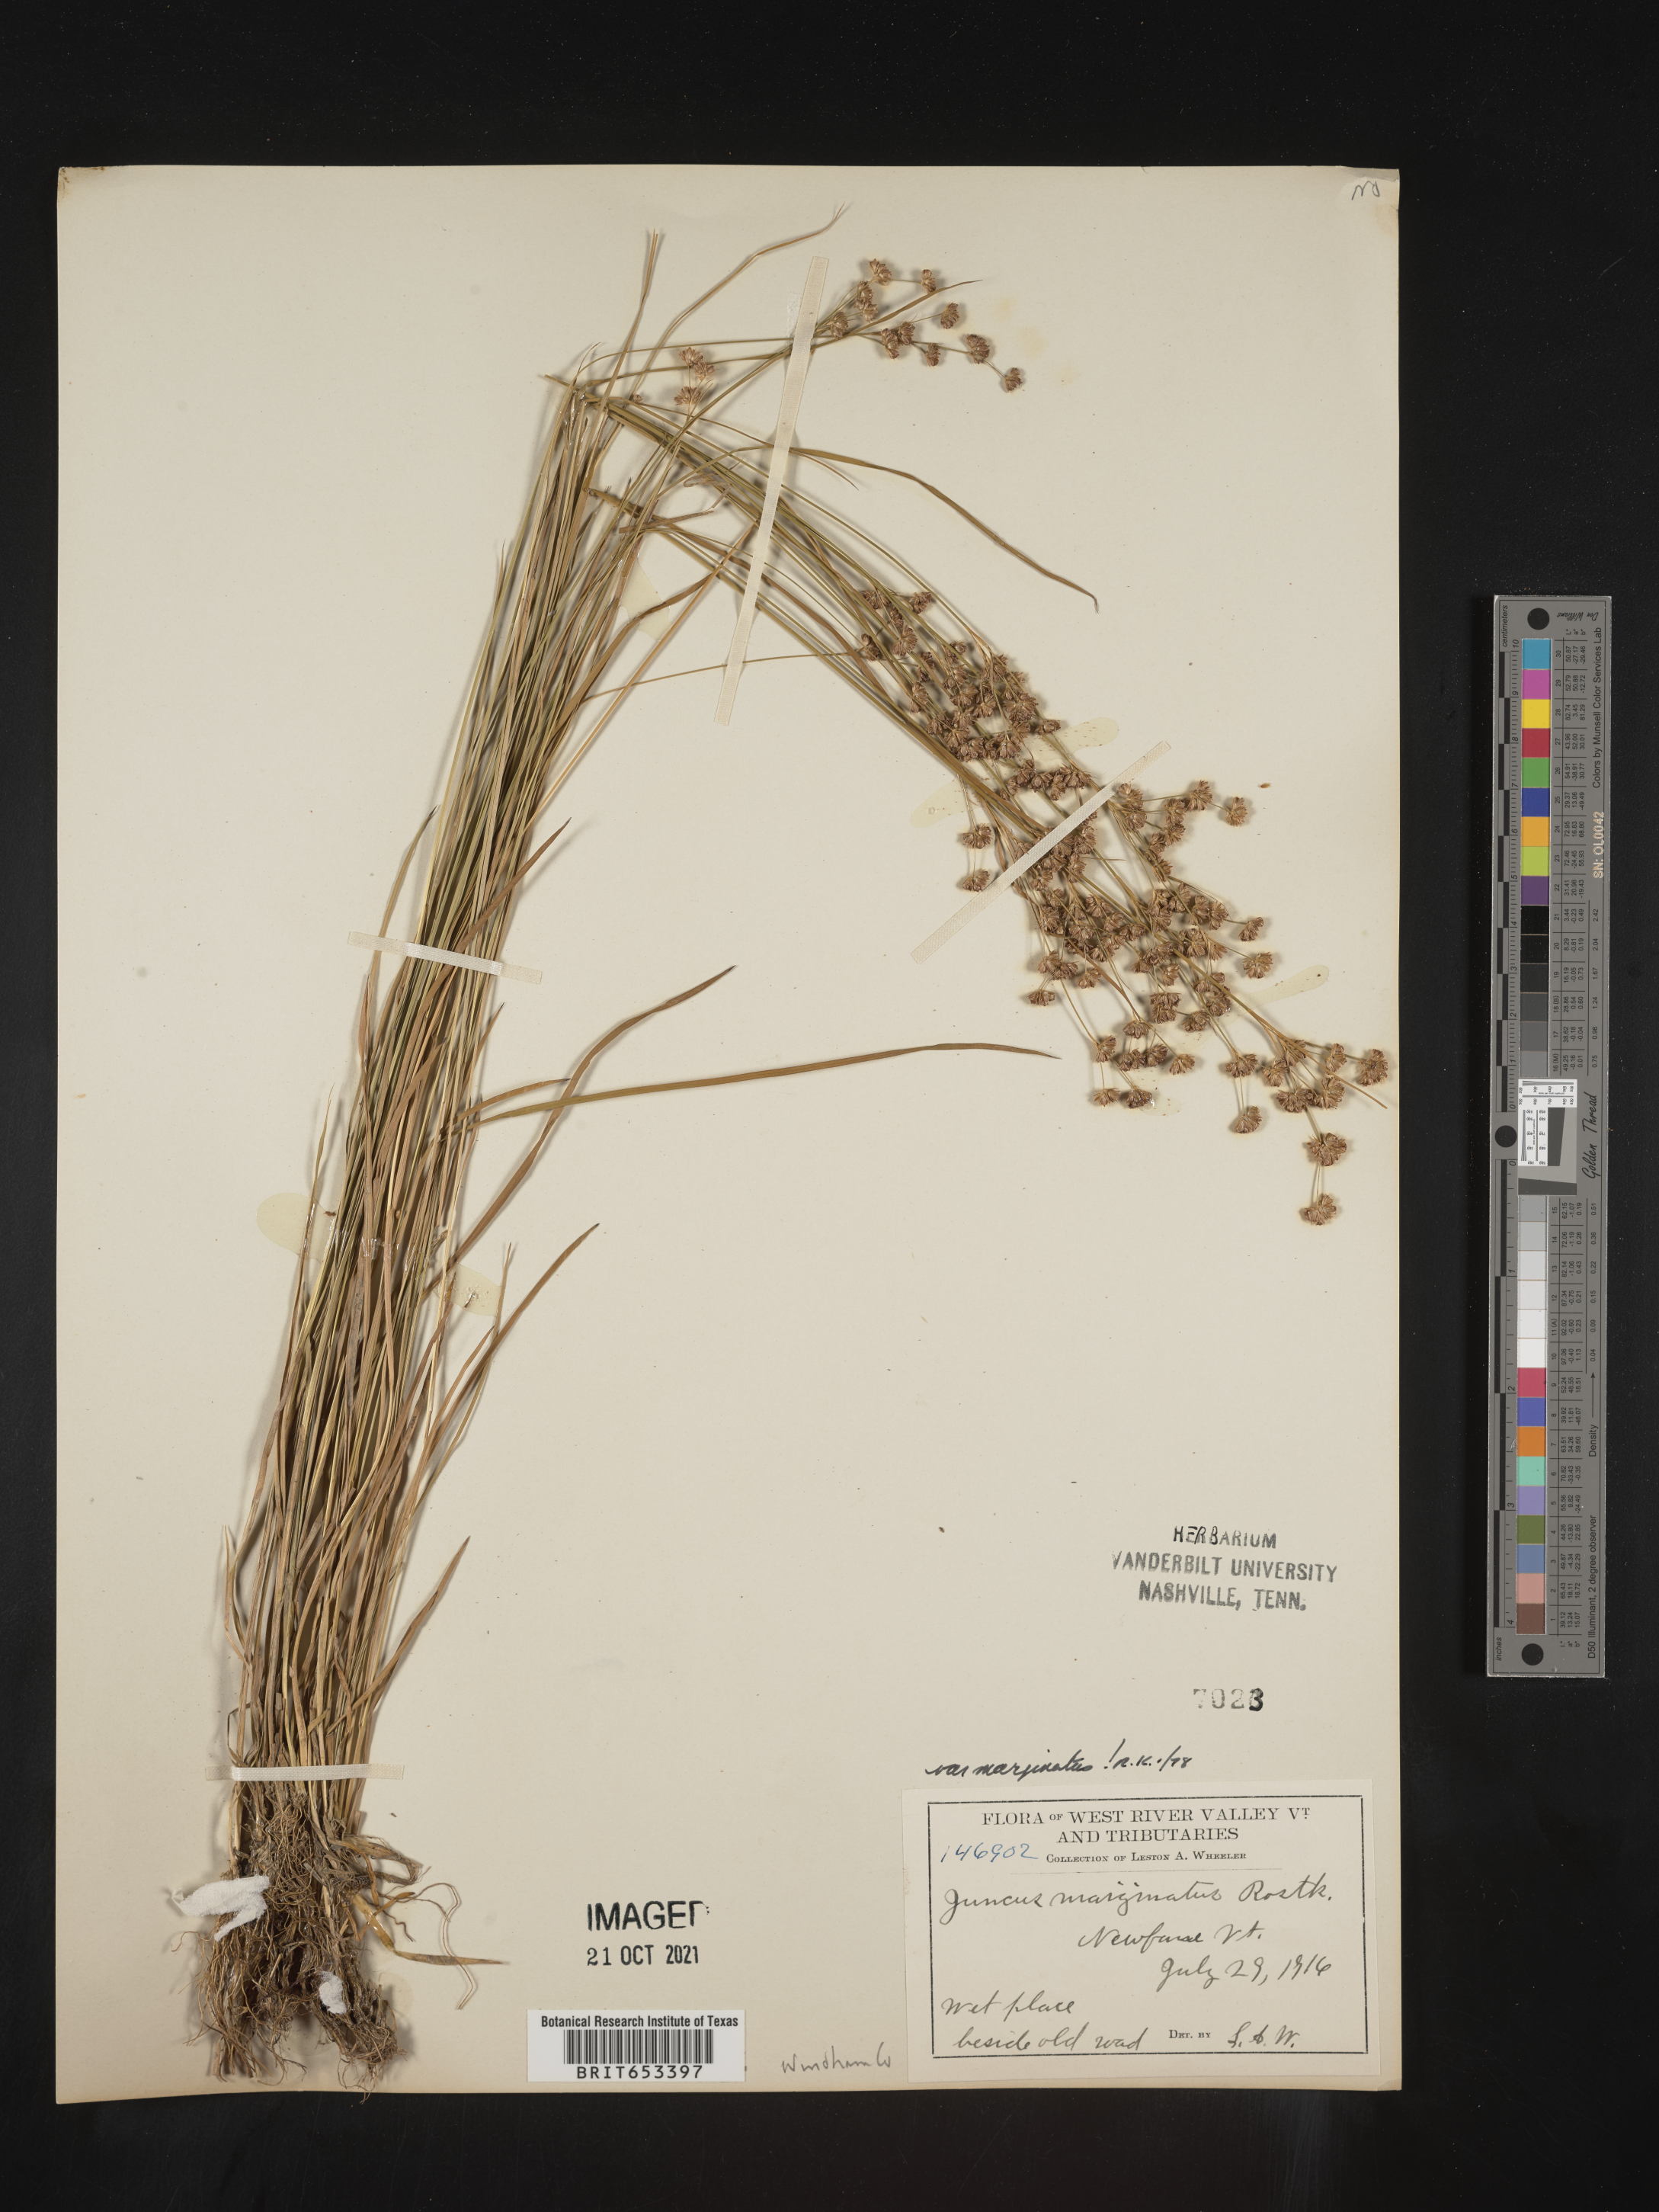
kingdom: Plantae
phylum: Tracheophyta
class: Liliopsida
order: Poales
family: Juncaceae
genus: Juncus
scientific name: Juncus marginatus
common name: Grass-leaf rush
